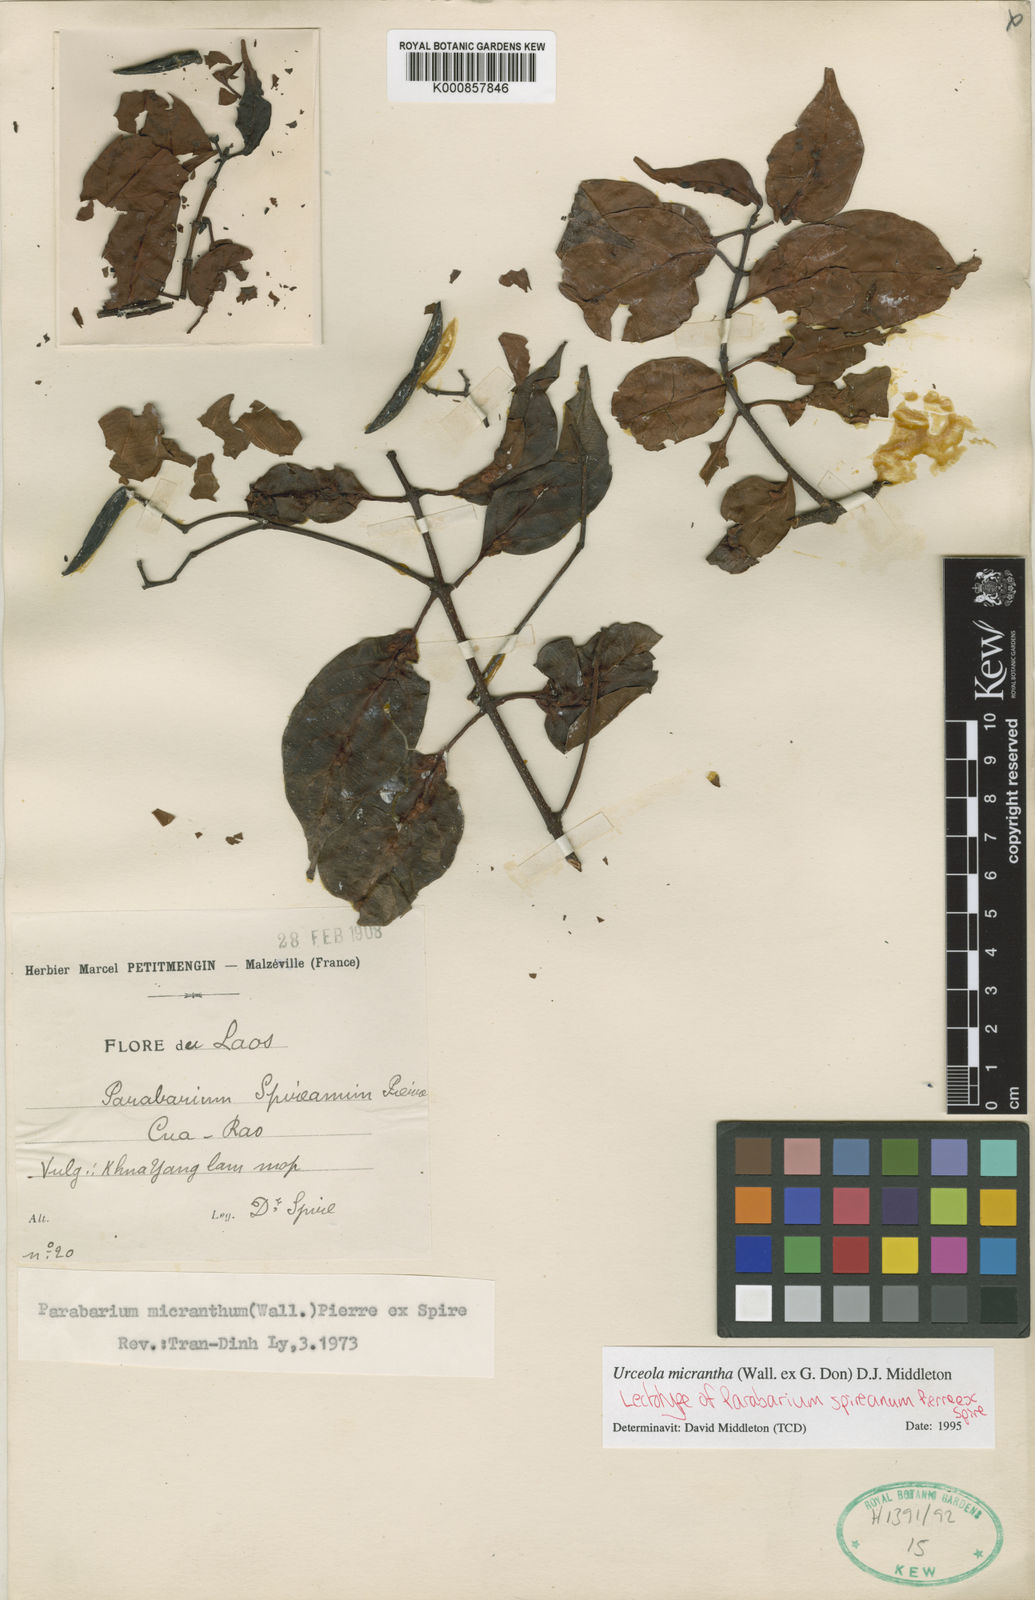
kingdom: Plantae
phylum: Tracheophyta
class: Magnoliopsida
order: Gentianales
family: Apocynaceae
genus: Urceola
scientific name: Urceola micrantha
